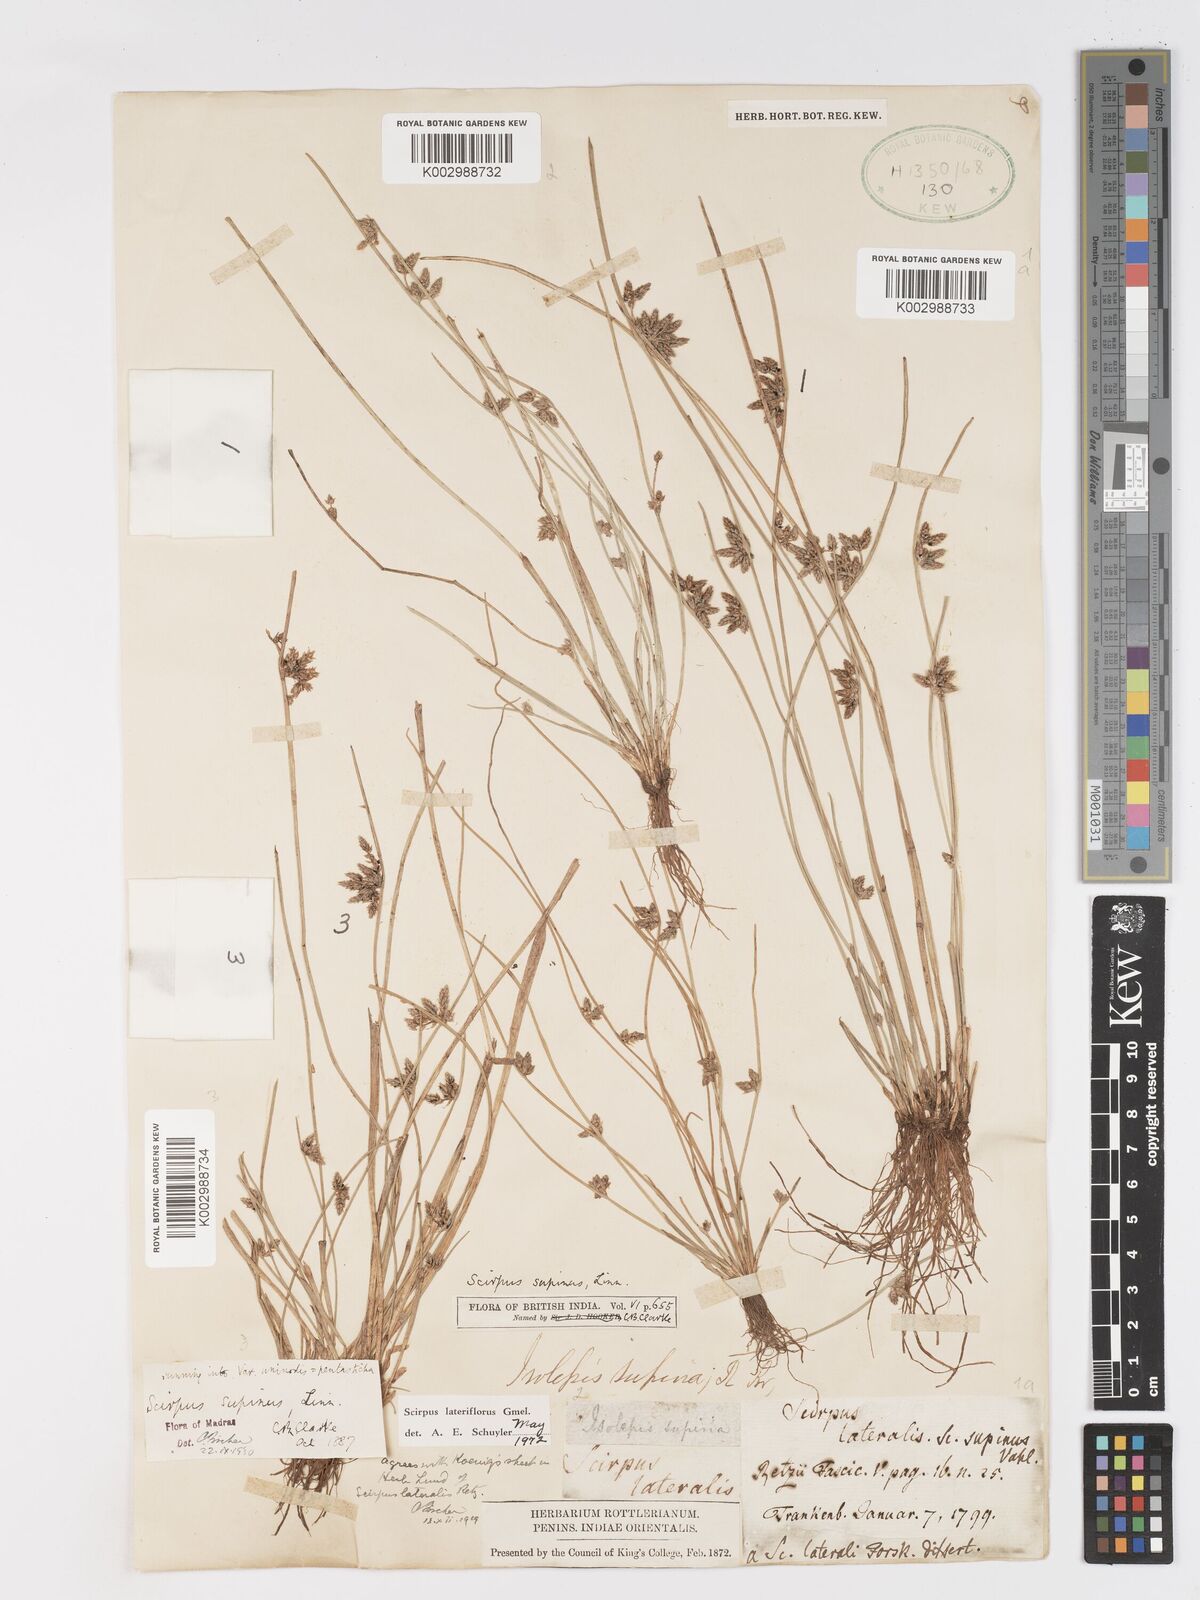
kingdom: Plantae
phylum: Tracheophyta
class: Liliopsida
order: Poales
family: Cyperaceae
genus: Schoenoplectiella
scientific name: Schoenoplectiella lateriflora
